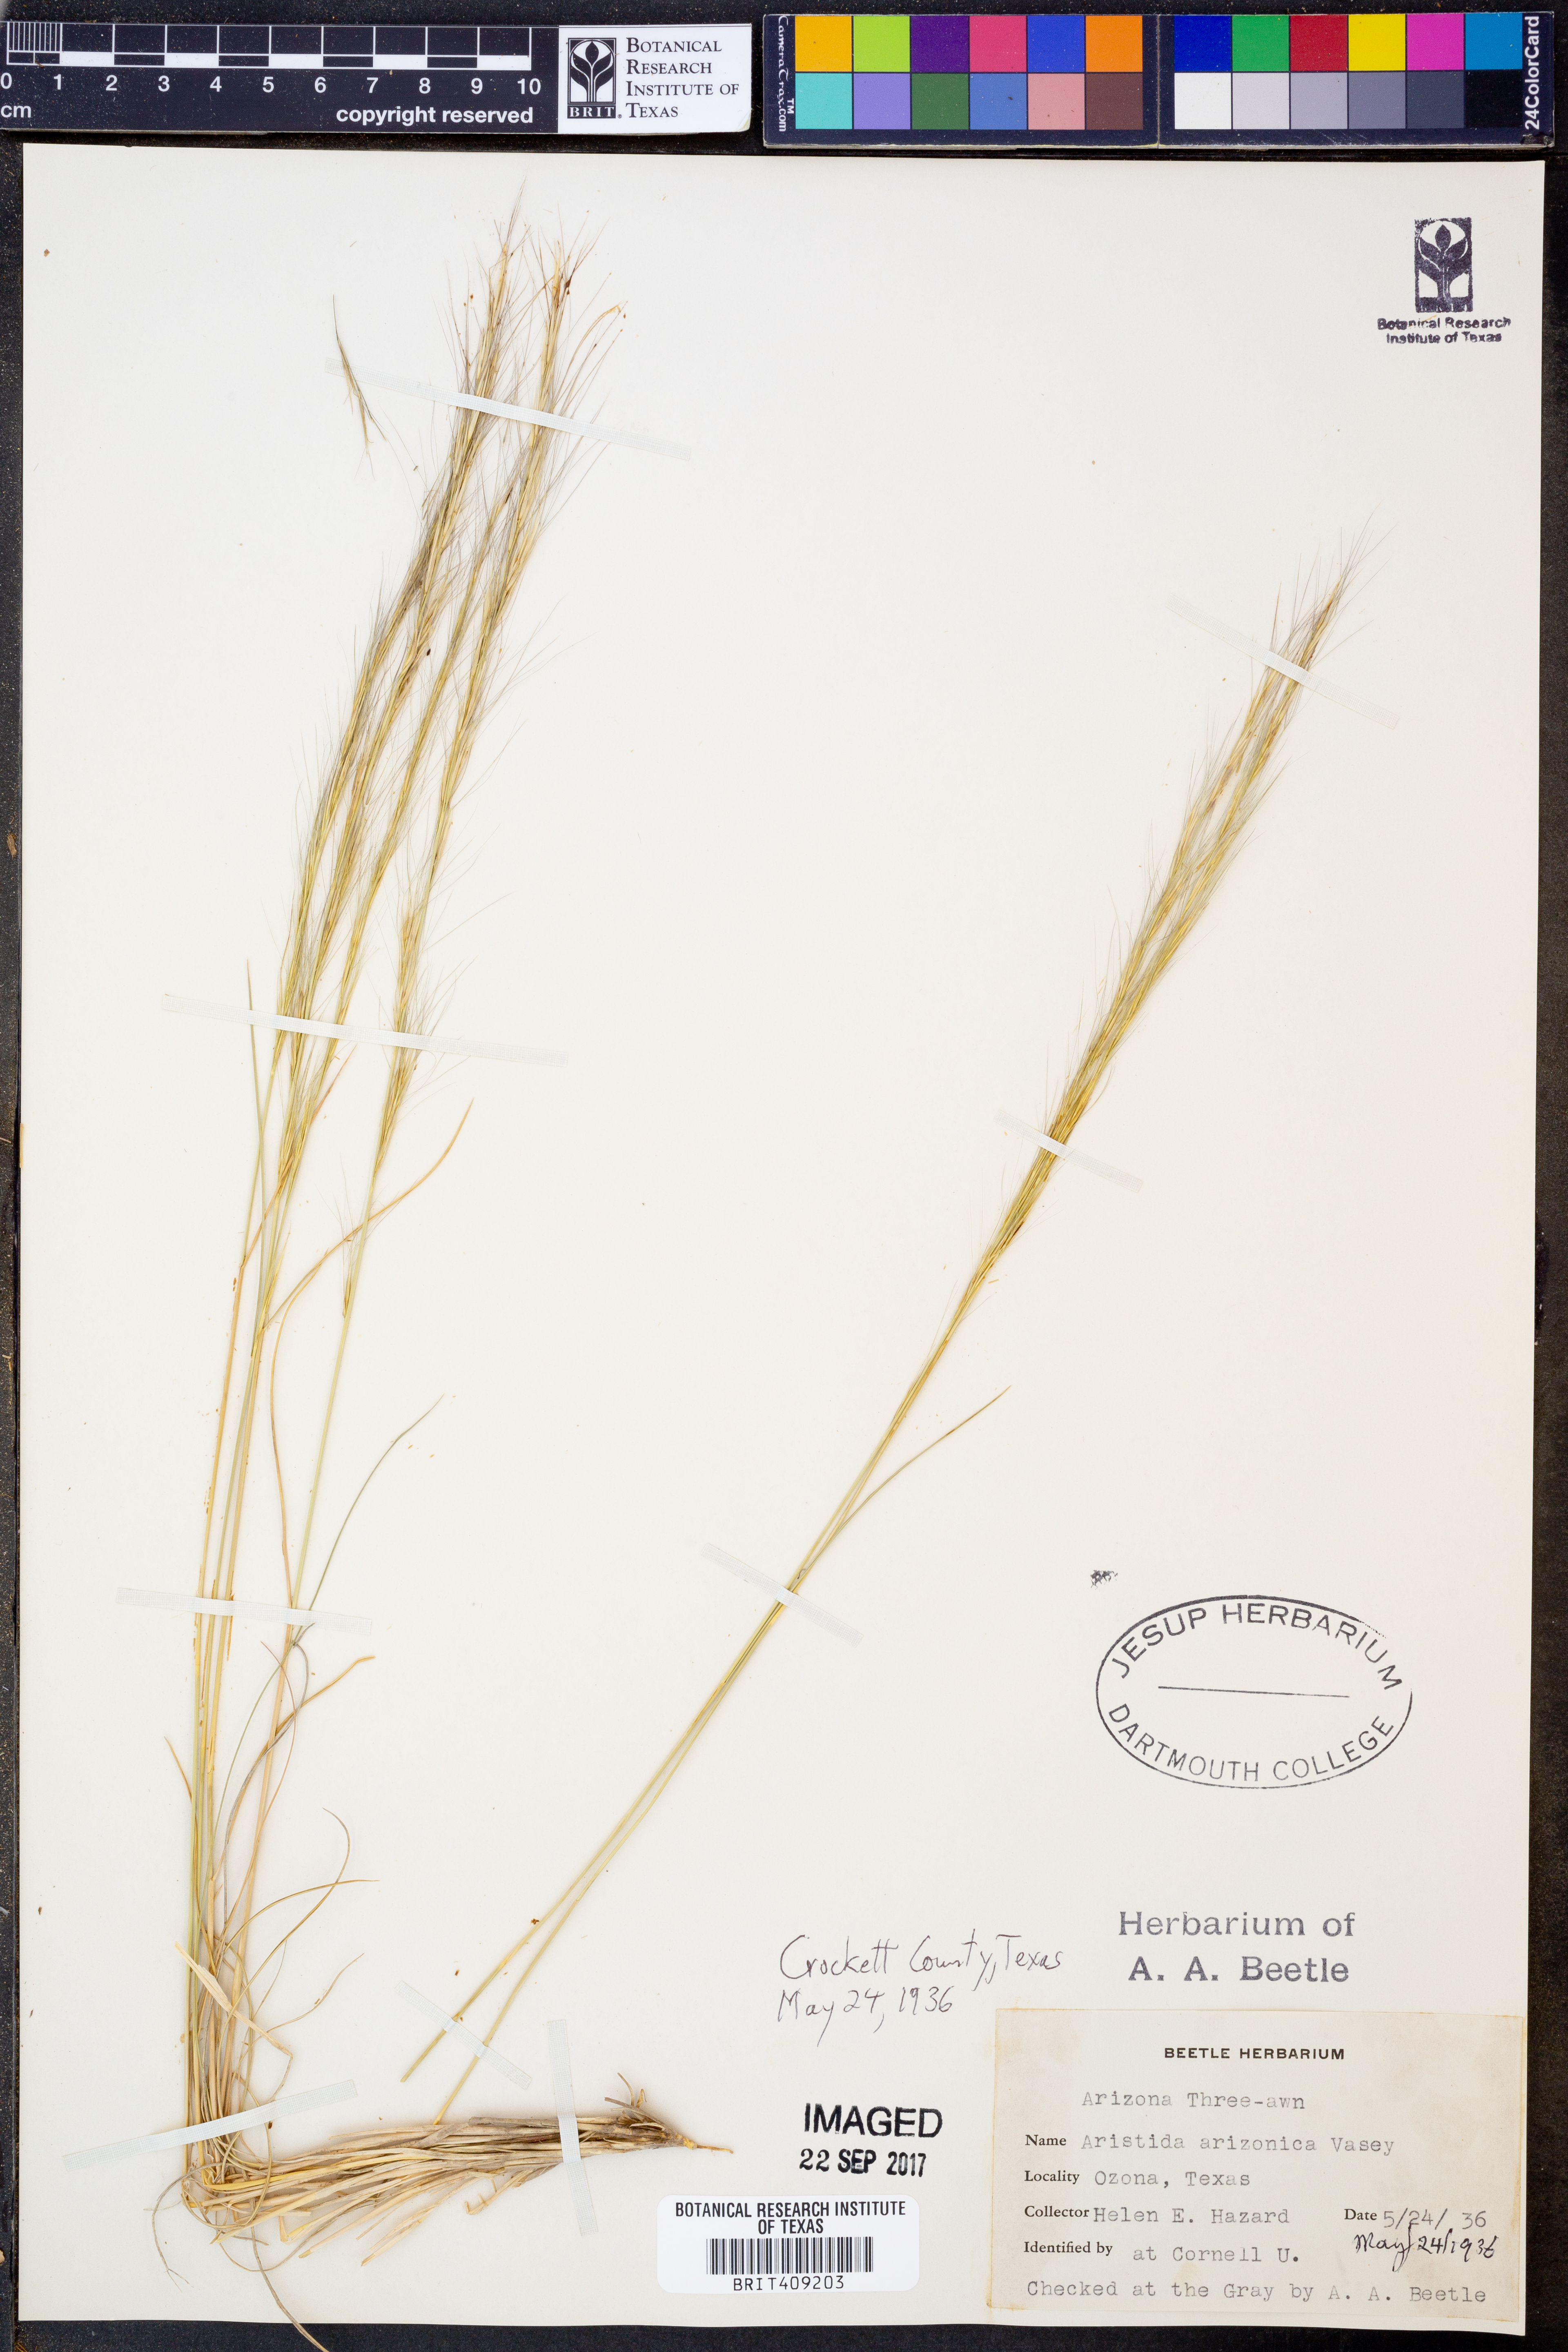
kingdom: Plantae
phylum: Tracheophyta
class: Liliopsida
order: Poales
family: Poaceae
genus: Aristida
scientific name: Aristida arizonica
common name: Arizona threeawn
